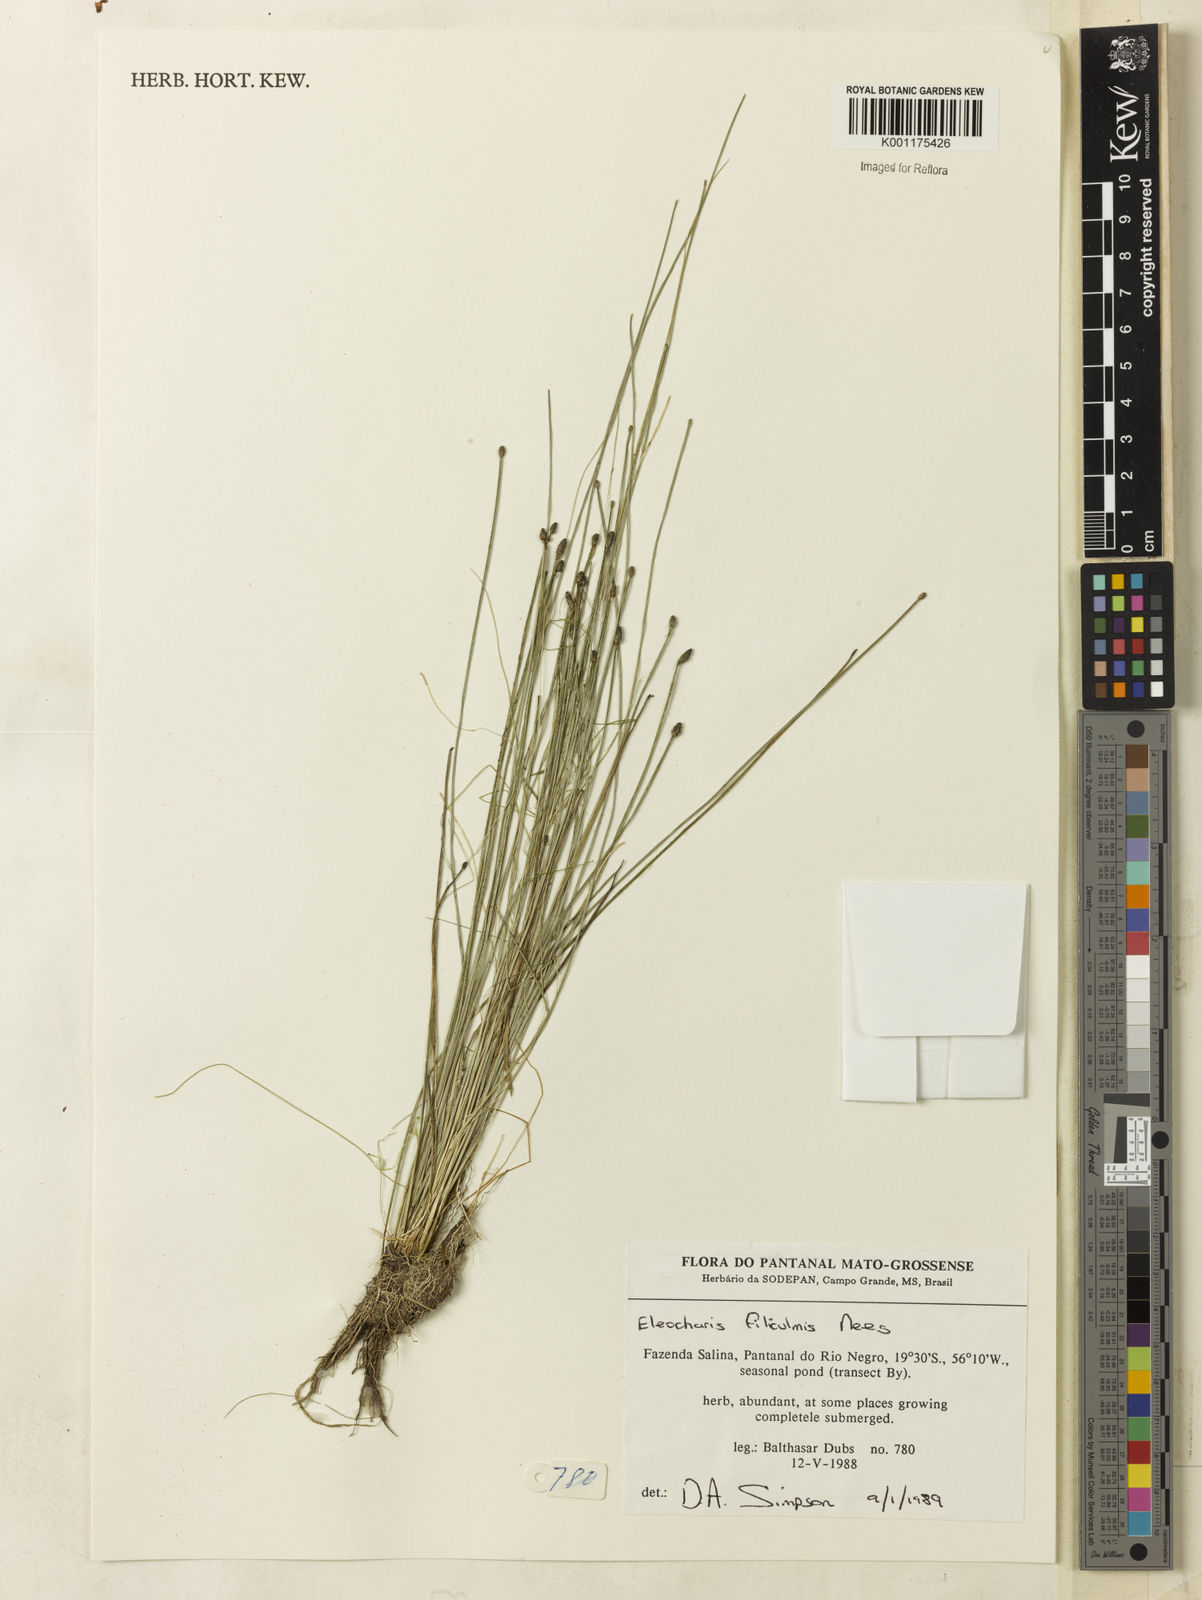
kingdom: Plantae
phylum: Tracheophyta
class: Liliopsida
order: Poales
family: Cyperaceae
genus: Eleocharis
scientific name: Eleocharis filiculmis
